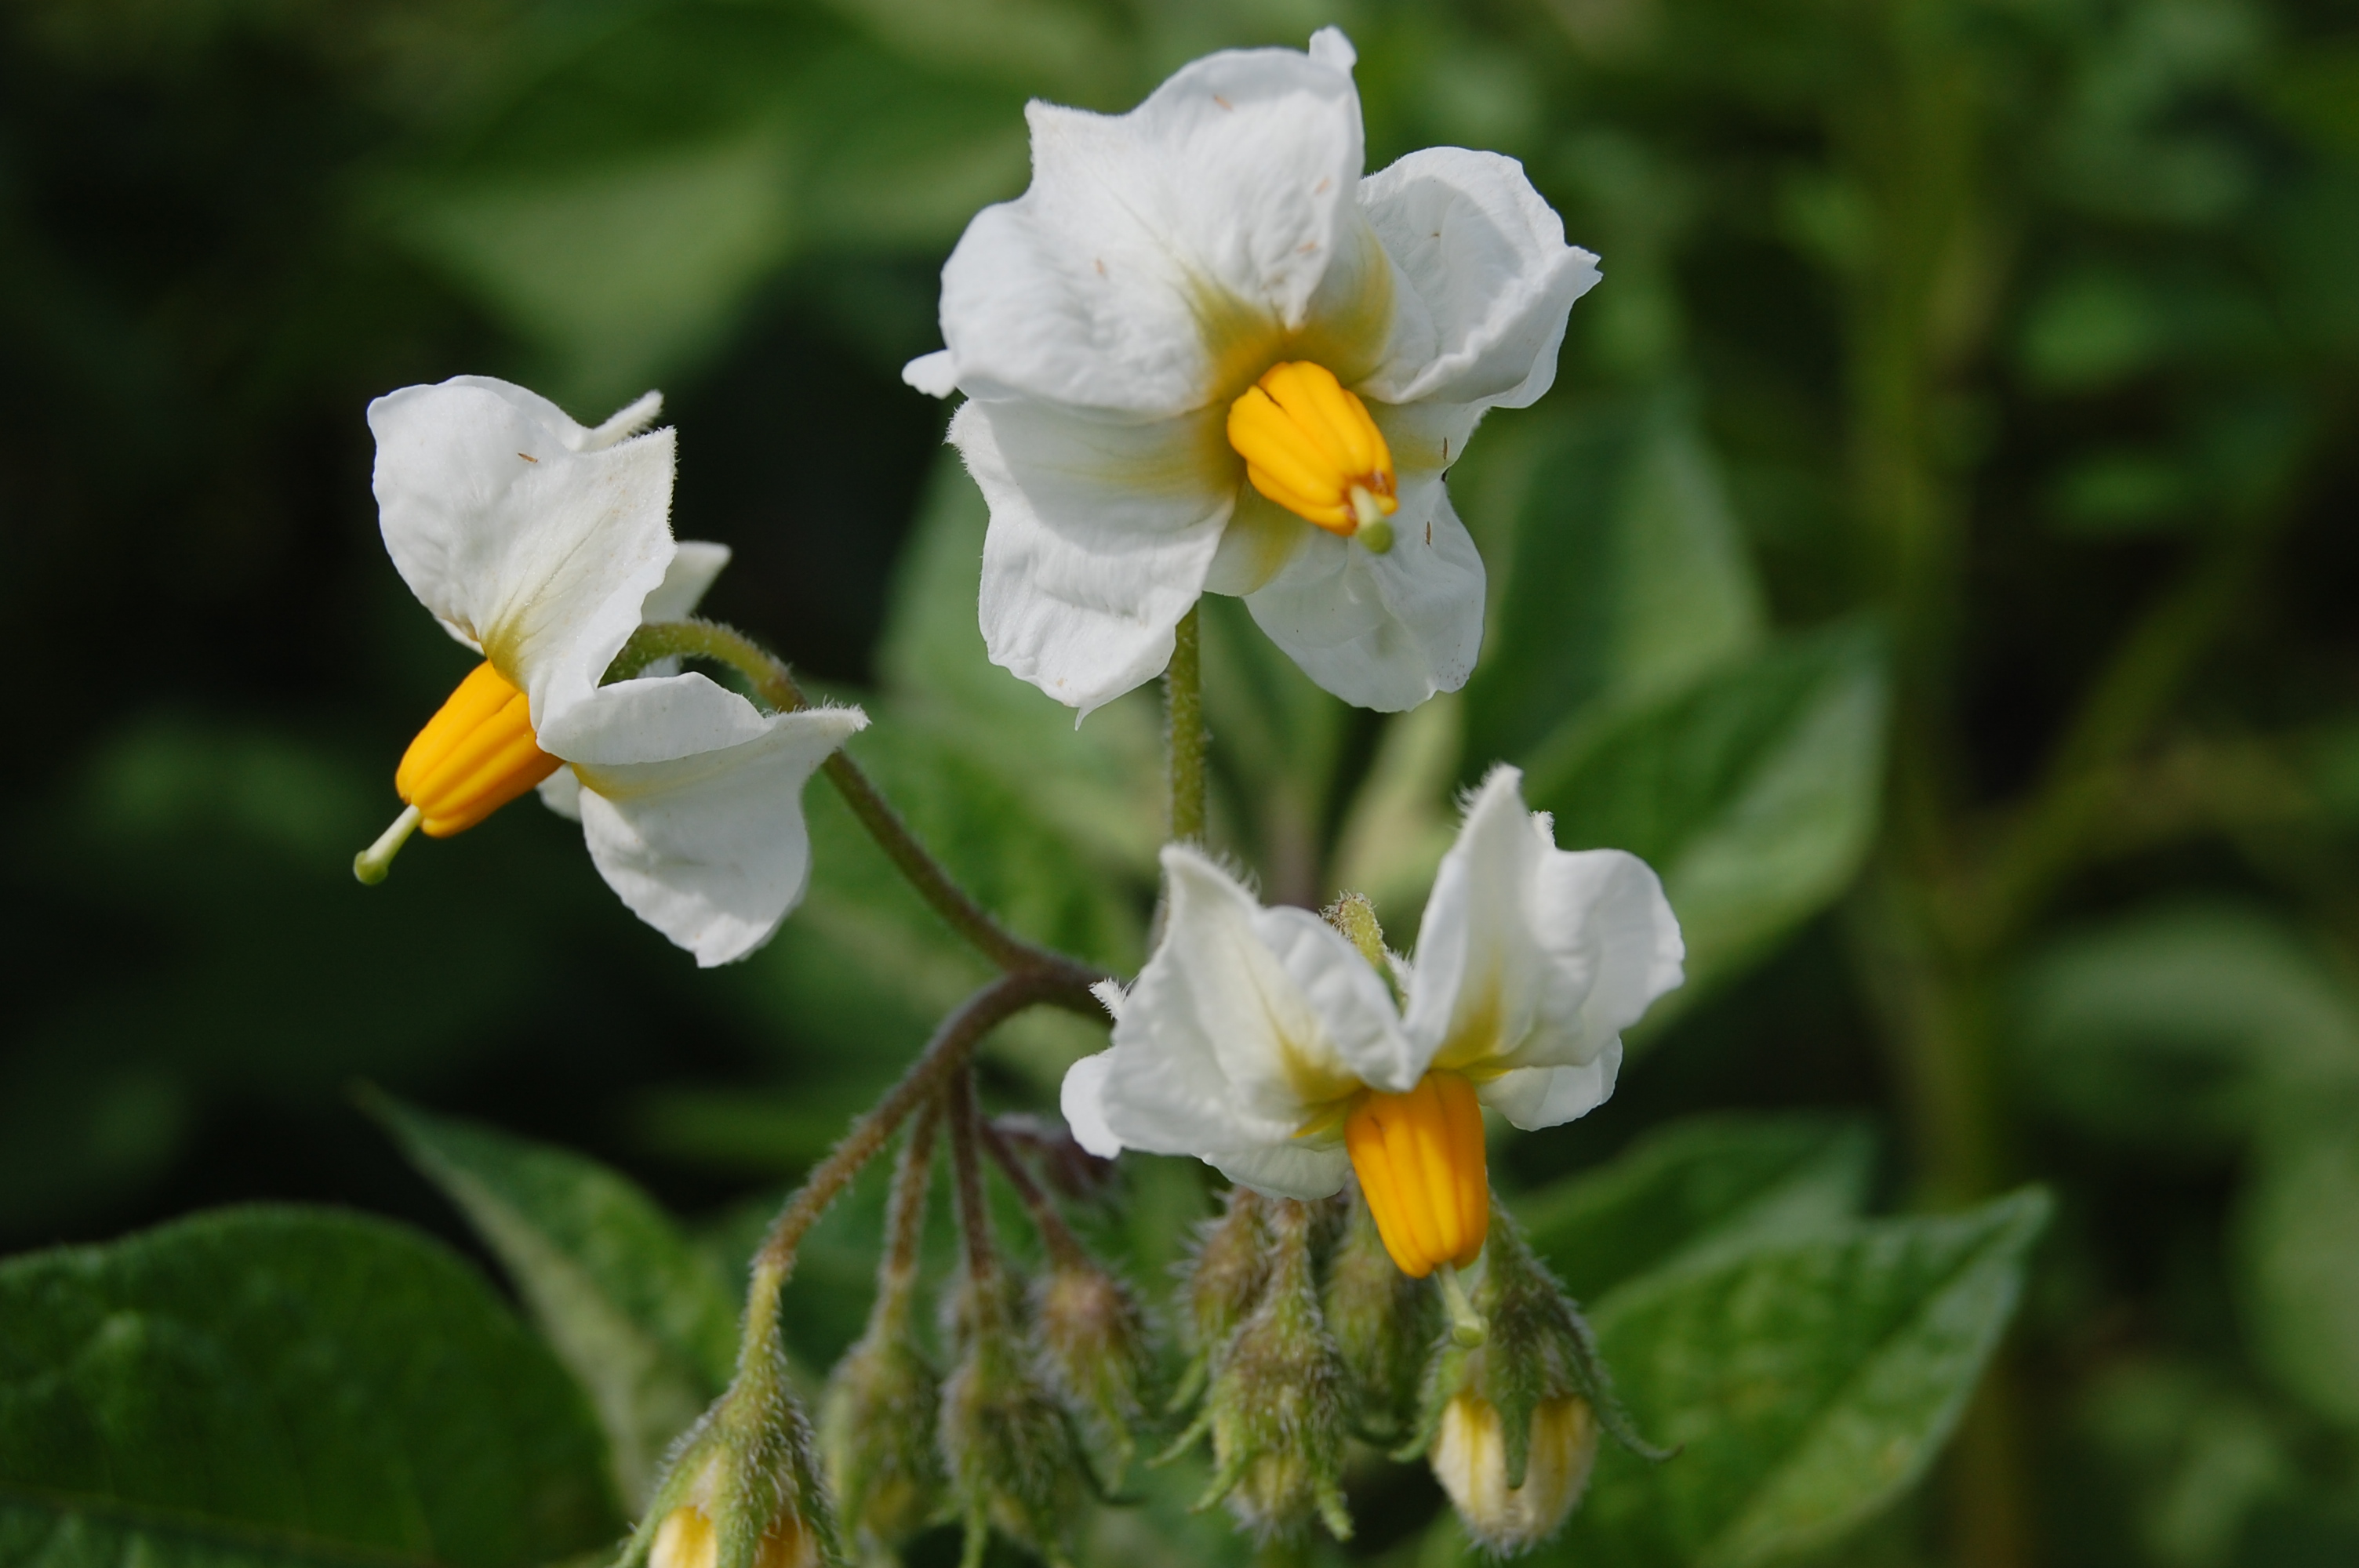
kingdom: Plantae
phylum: Tracheophyta
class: Magnoliopsida
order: Solanales
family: Solanaceae
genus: Solanum
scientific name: Solanum tuberosum
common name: Potato
